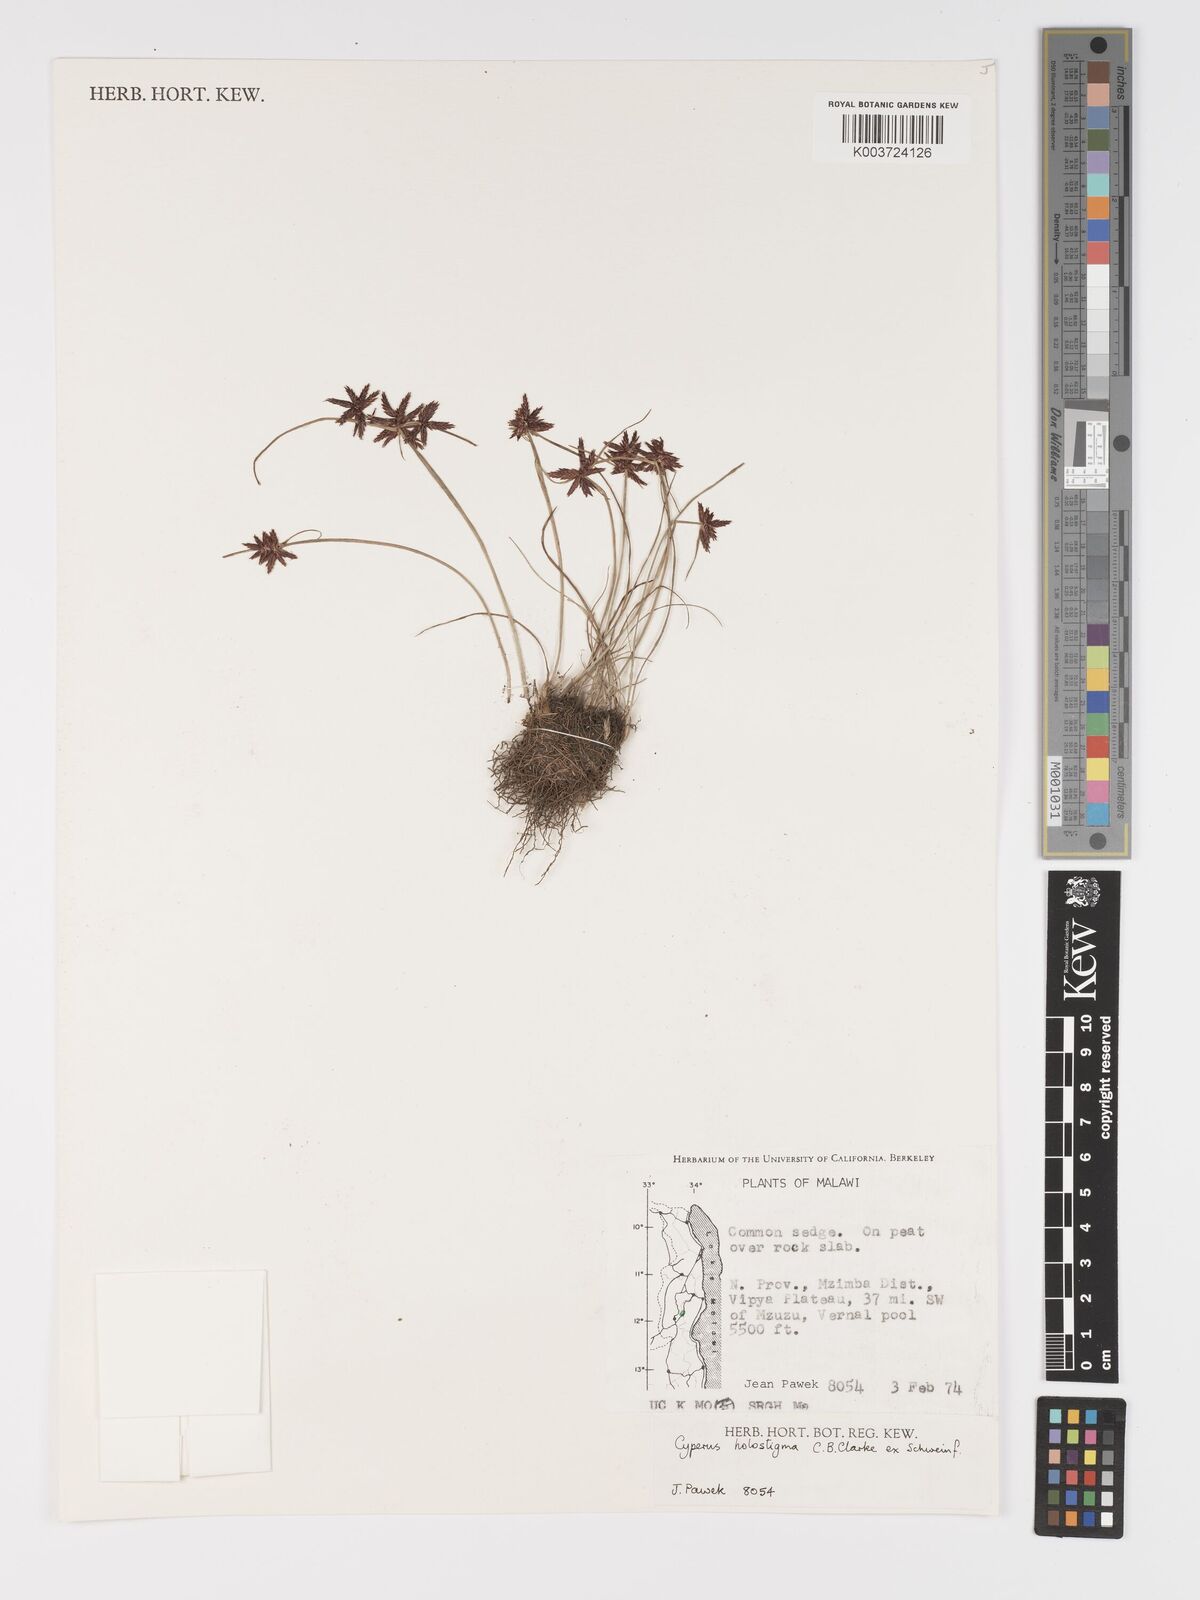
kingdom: Plantae
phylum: Tracheophyta
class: Liliopsida
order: Poales
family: Cyperaceae
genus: Cyperus
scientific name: Cyperus holostigma
